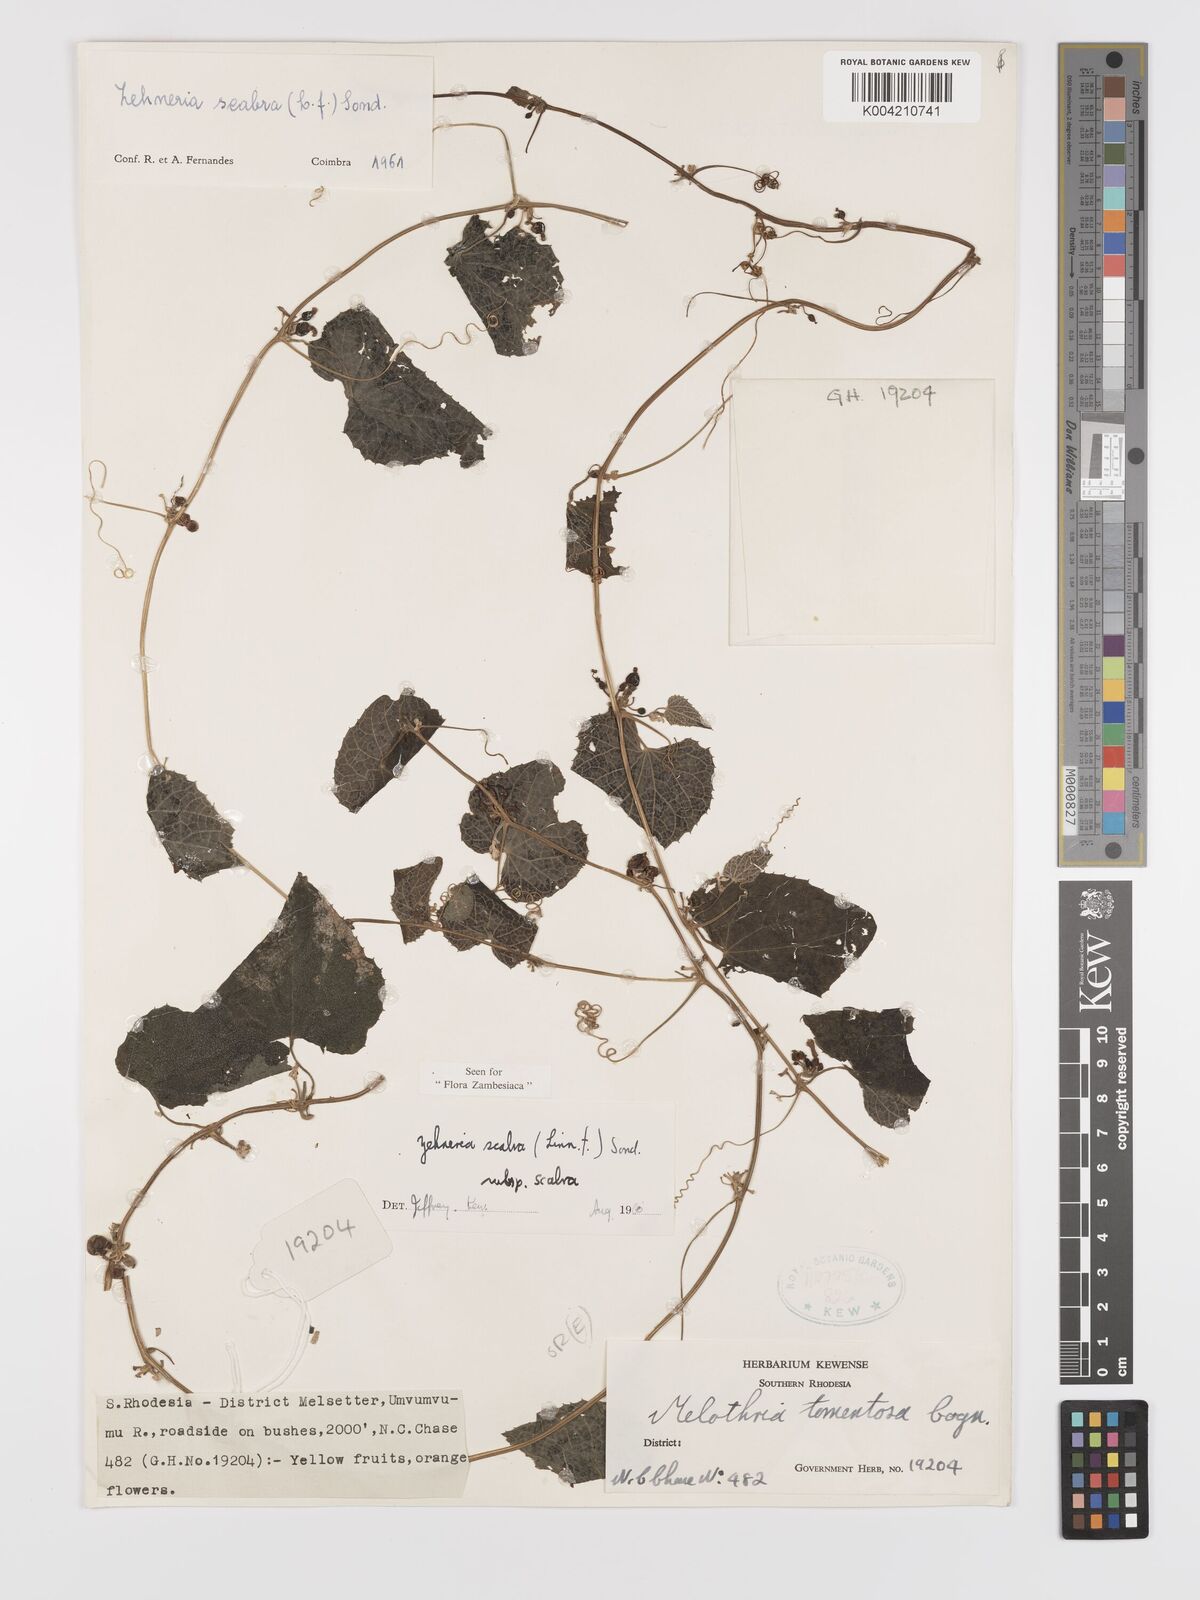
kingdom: Plantae
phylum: Tracheophyta
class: Magnoliopsida
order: Cucurbitales
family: Cucurbitaceae
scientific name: Cucurbitaceae
